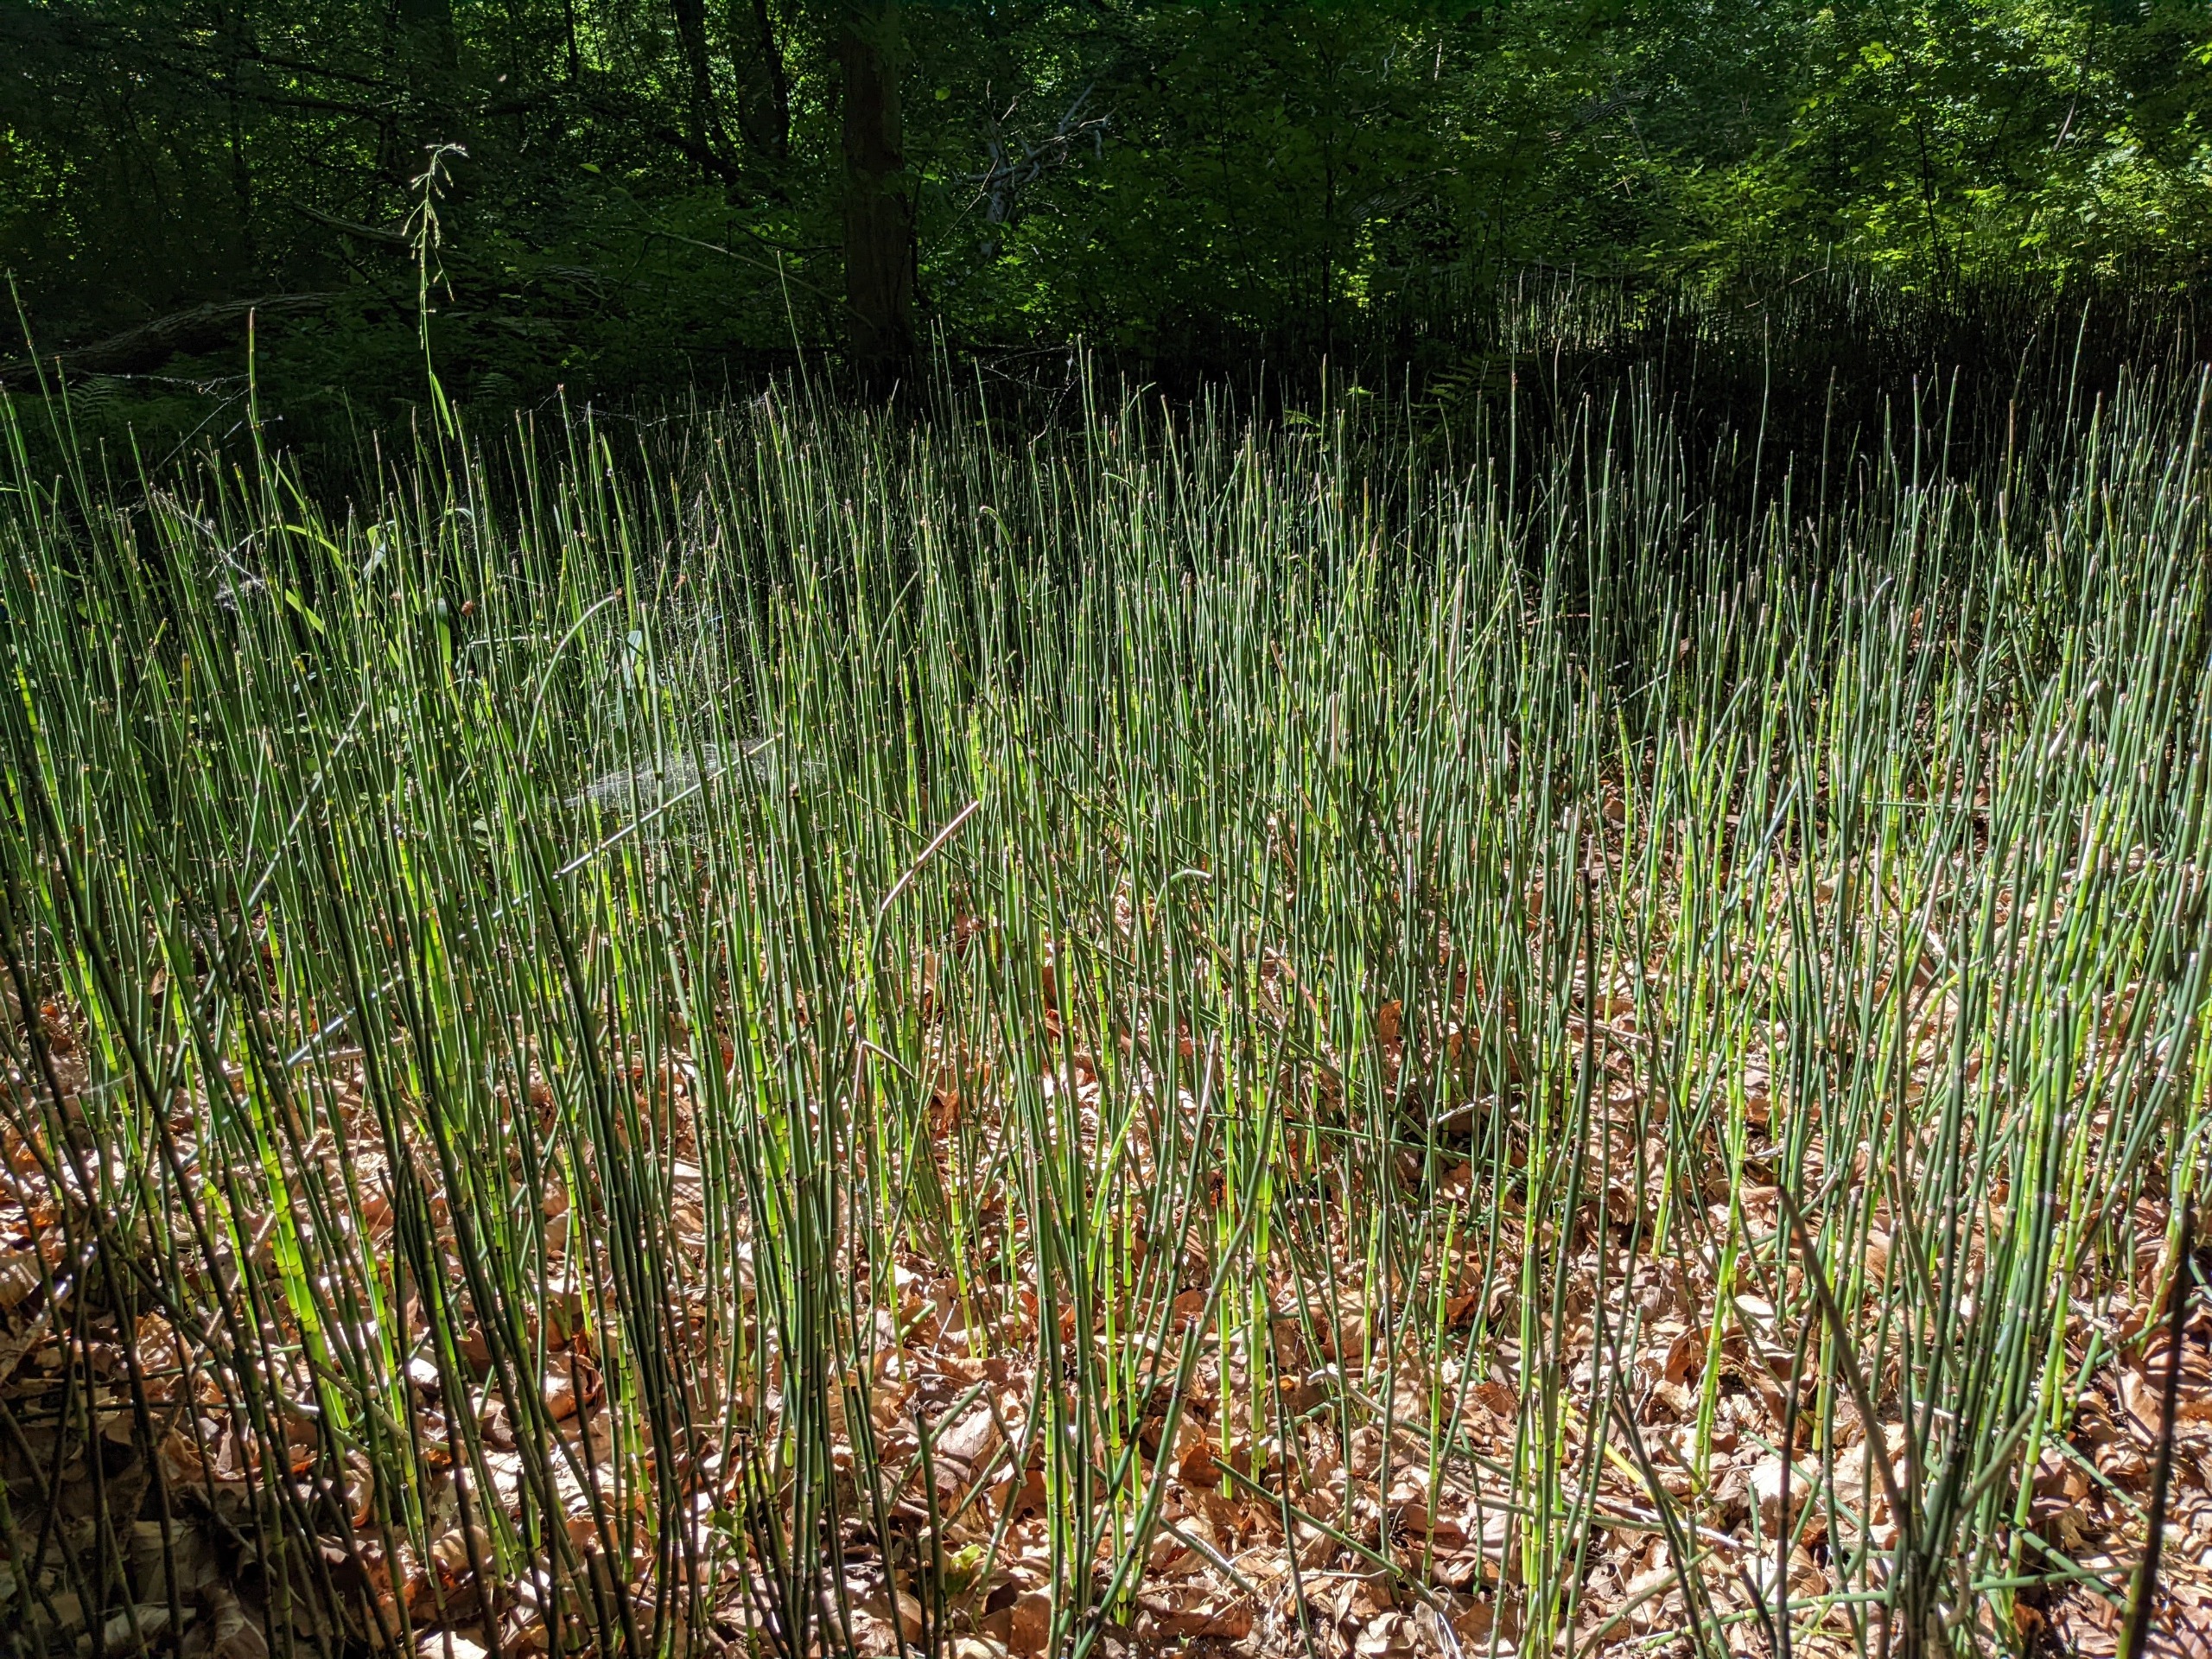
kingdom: Plantae
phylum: Tracheophyta
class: Polypodiopsida
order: Equisetales
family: Equisetaceae
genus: Equisetum
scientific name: Equisetum hyemale
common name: Skavgræs
